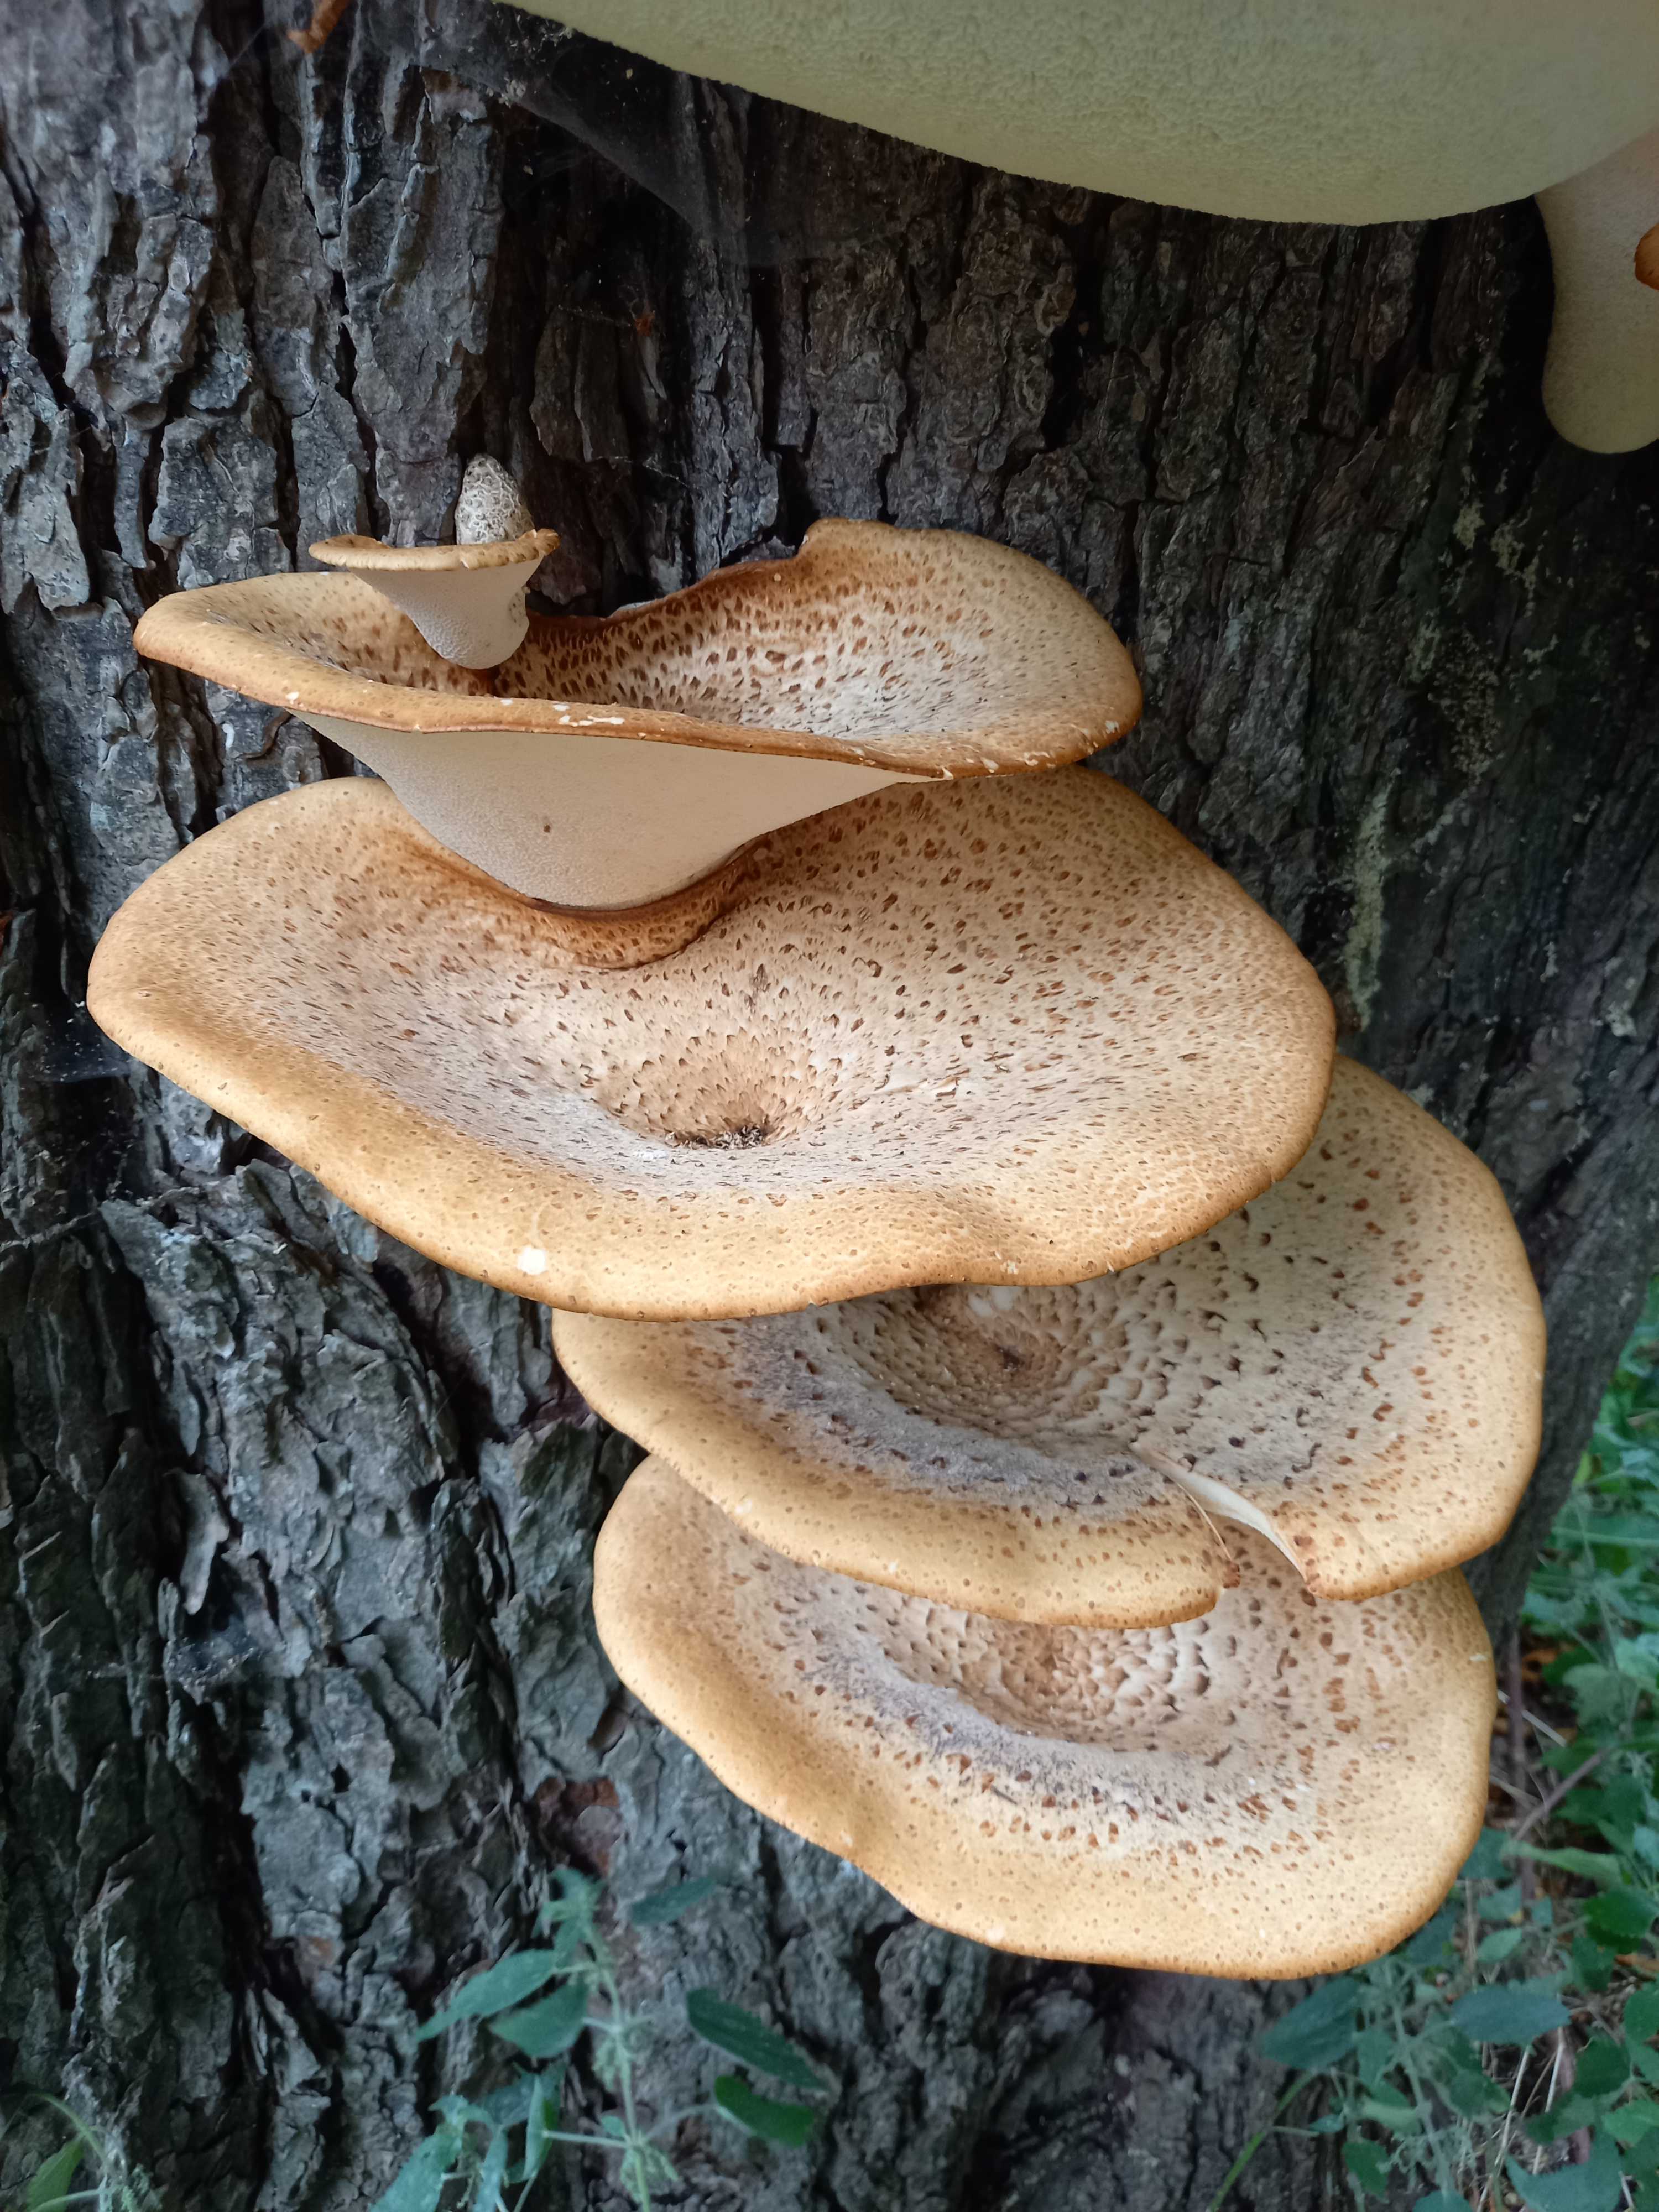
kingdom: Fungi
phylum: Basidiomycota
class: Agaricomycetes
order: Polyporales
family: Polyporaceae
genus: Cerioporus
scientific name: Cerioporus squamosus
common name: skællet stilkporesvamp
